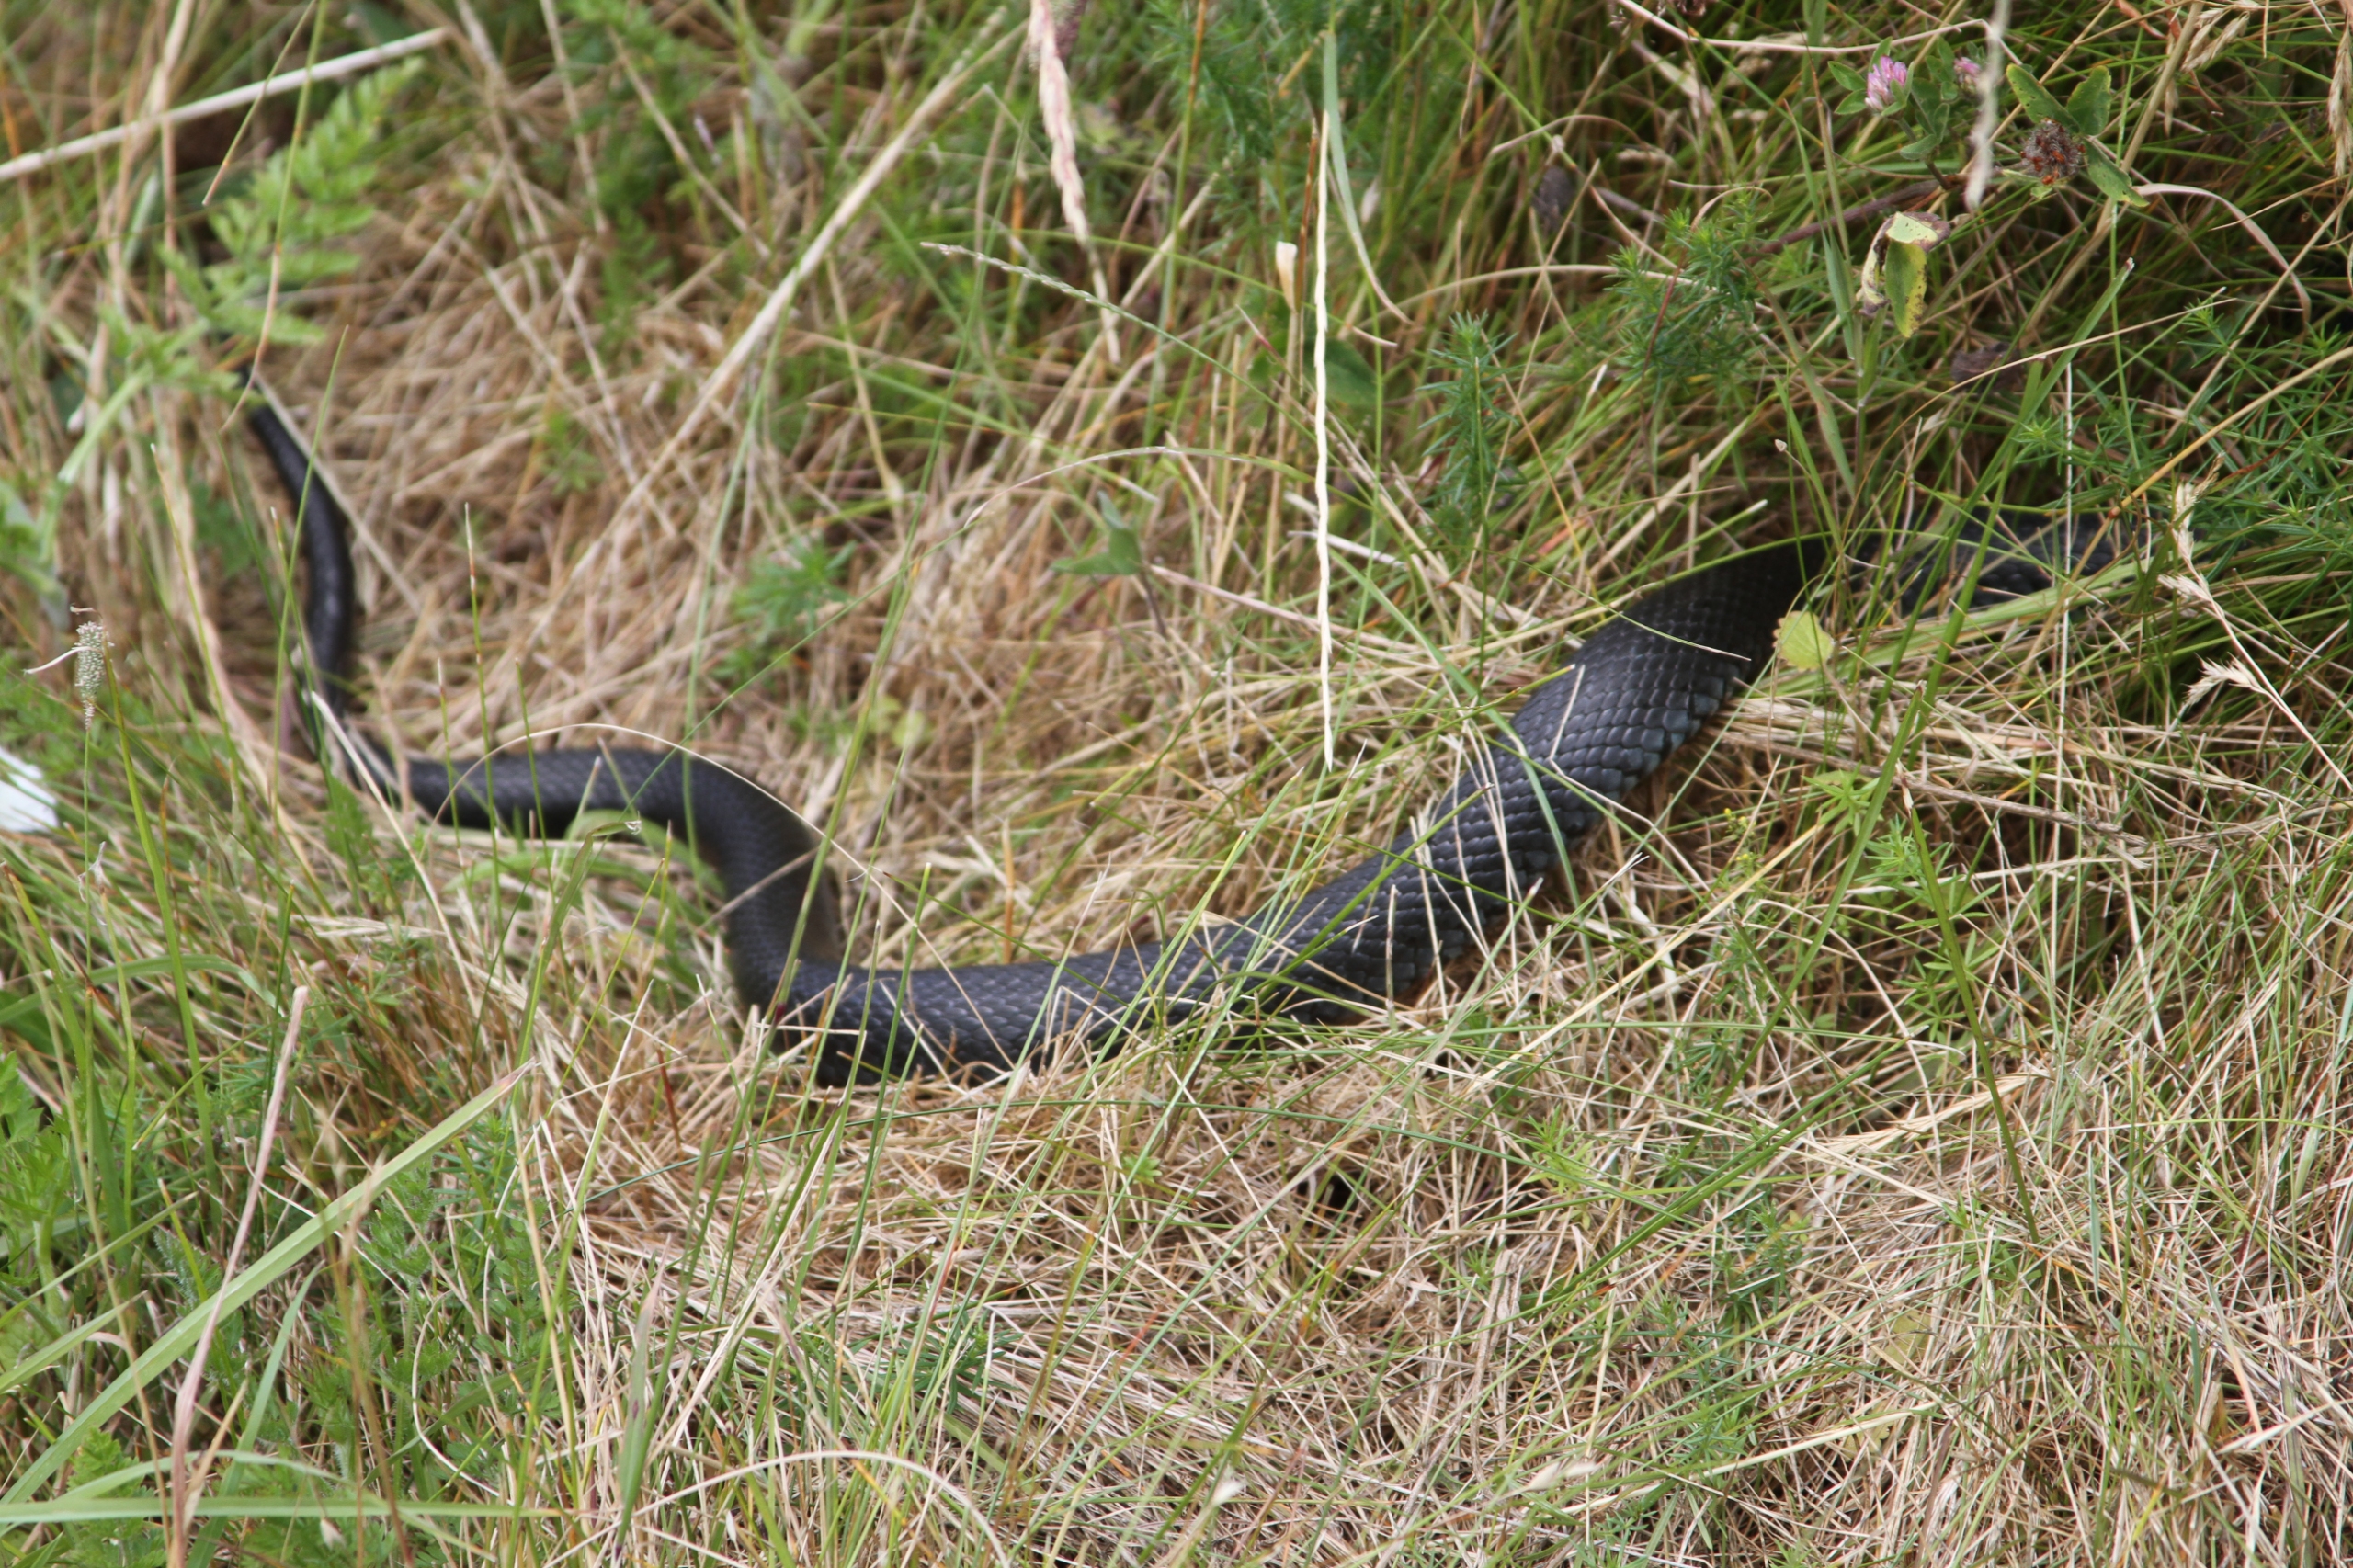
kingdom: Animalia
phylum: Chordata
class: Squamata
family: Colubridae
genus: Natrix
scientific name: Natrix natrix
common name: Snog
